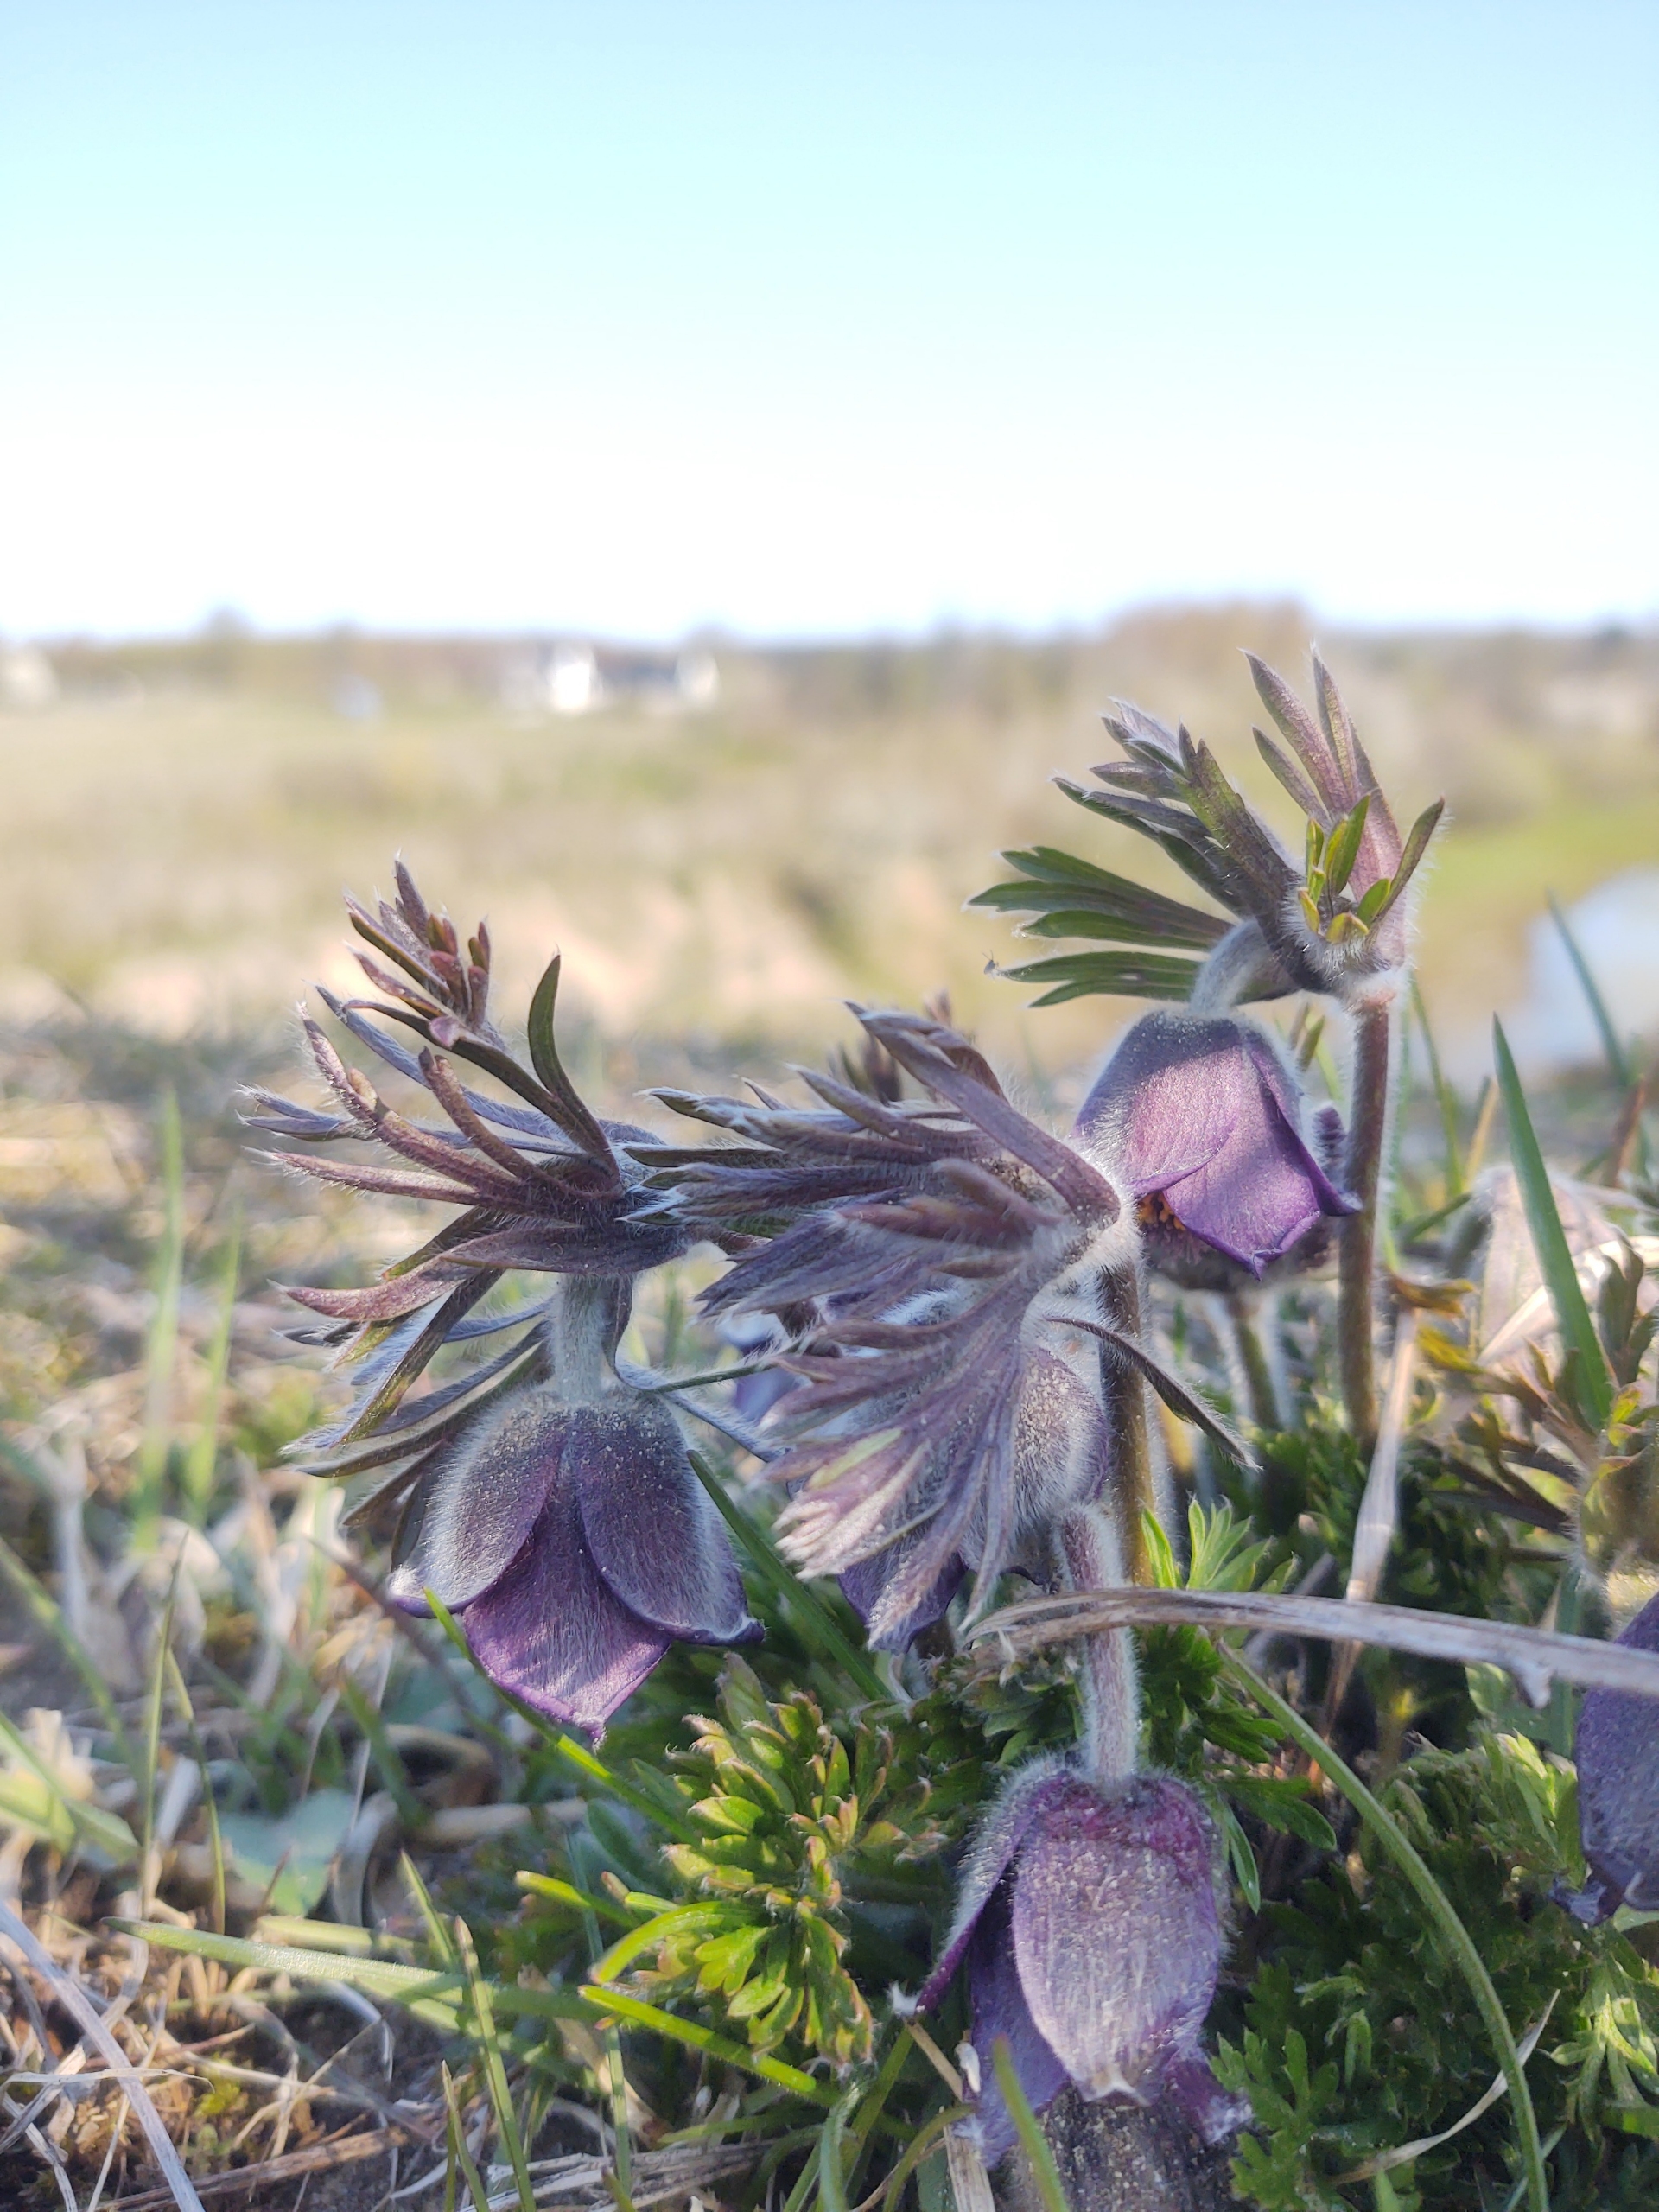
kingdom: Plantae
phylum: Tracheophyta
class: Magnoliopsida
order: Ranunculales
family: Ranunculaceae
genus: Pulsatilla
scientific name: Pulsatilla pratensis
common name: Nikkende kobjælde
